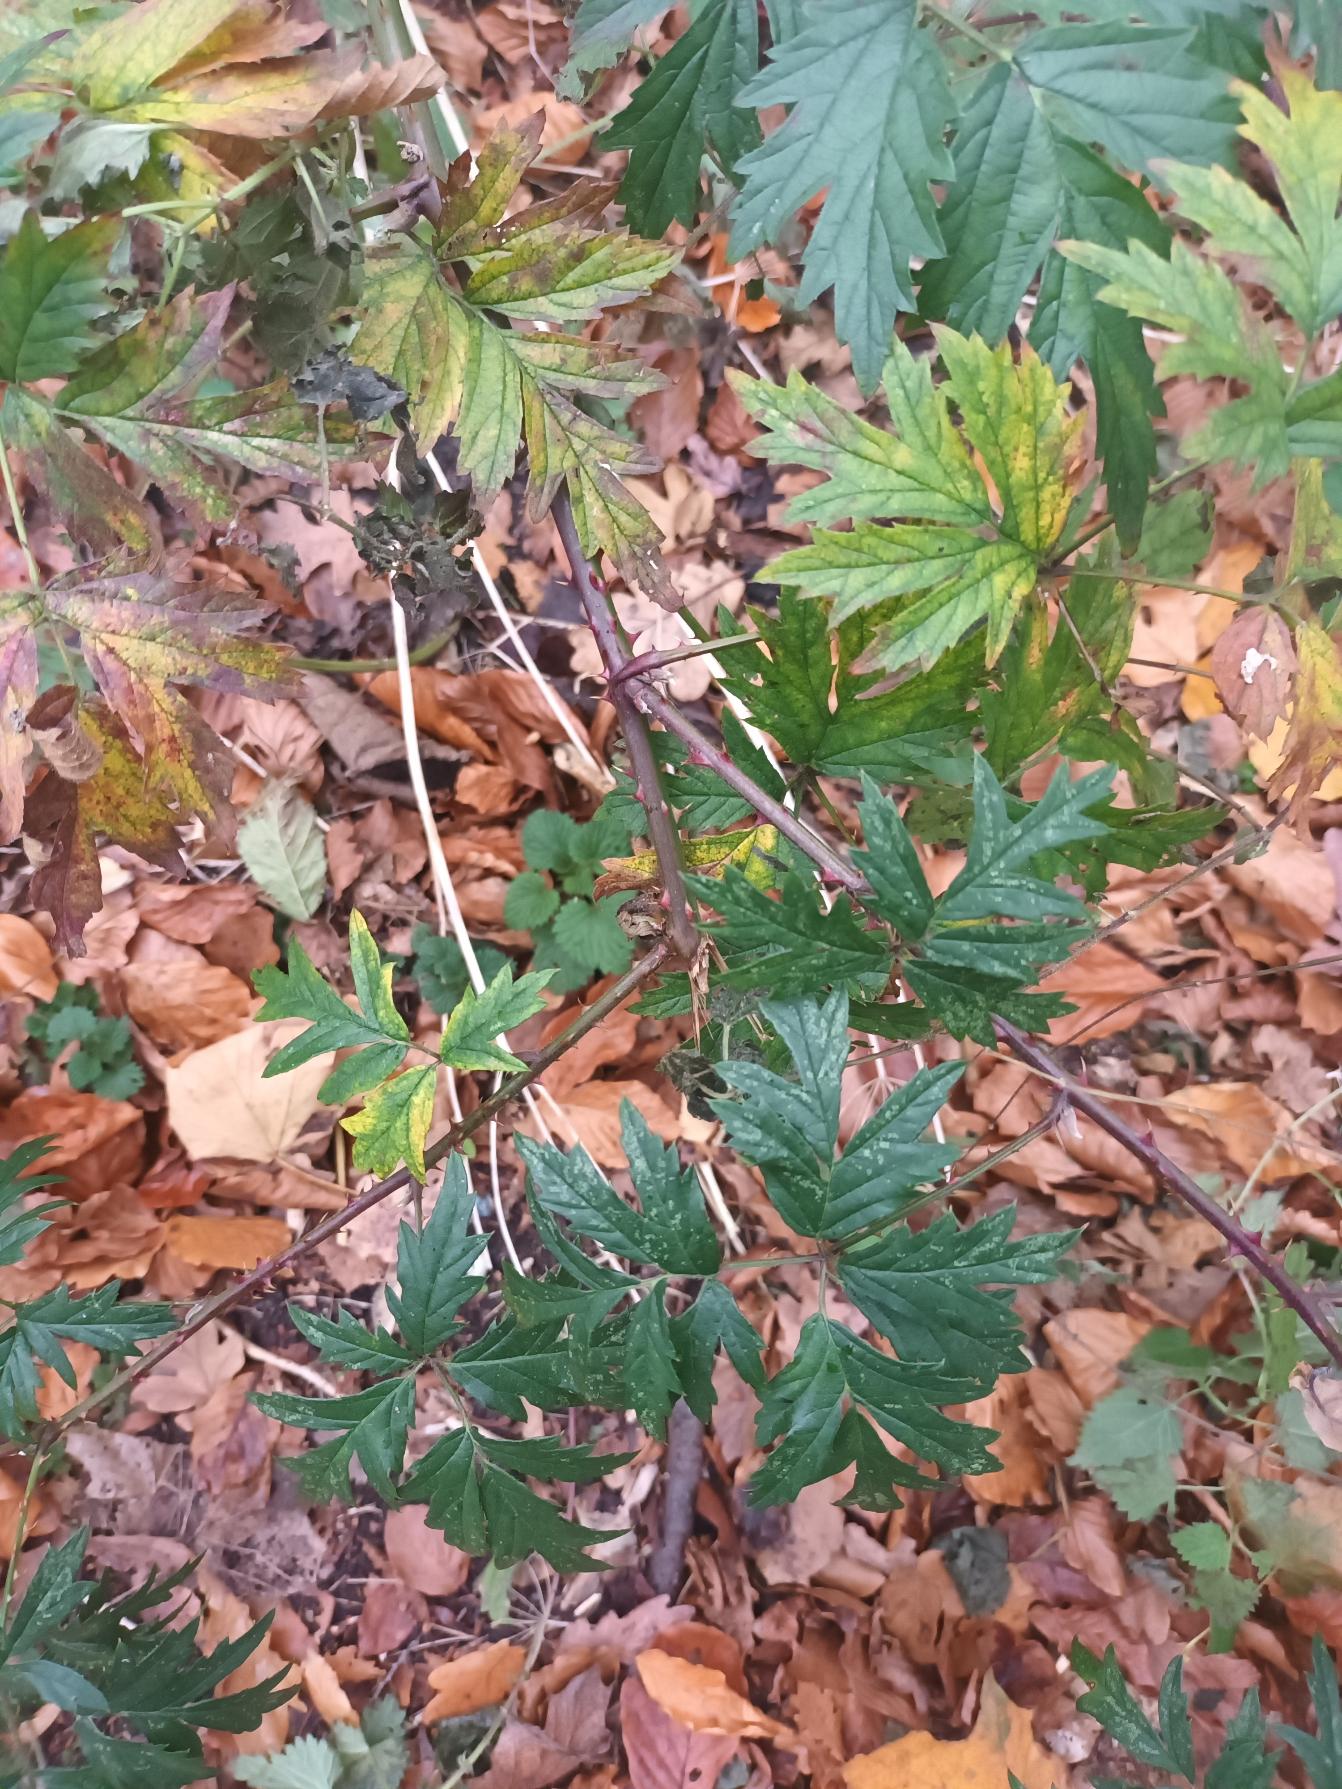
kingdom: Plantae
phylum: Tracheophyta
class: Magnoliopsida
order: Rosales
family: Rosaceae
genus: Rubus
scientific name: Rubus laciniatus
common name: Fliget brombær
